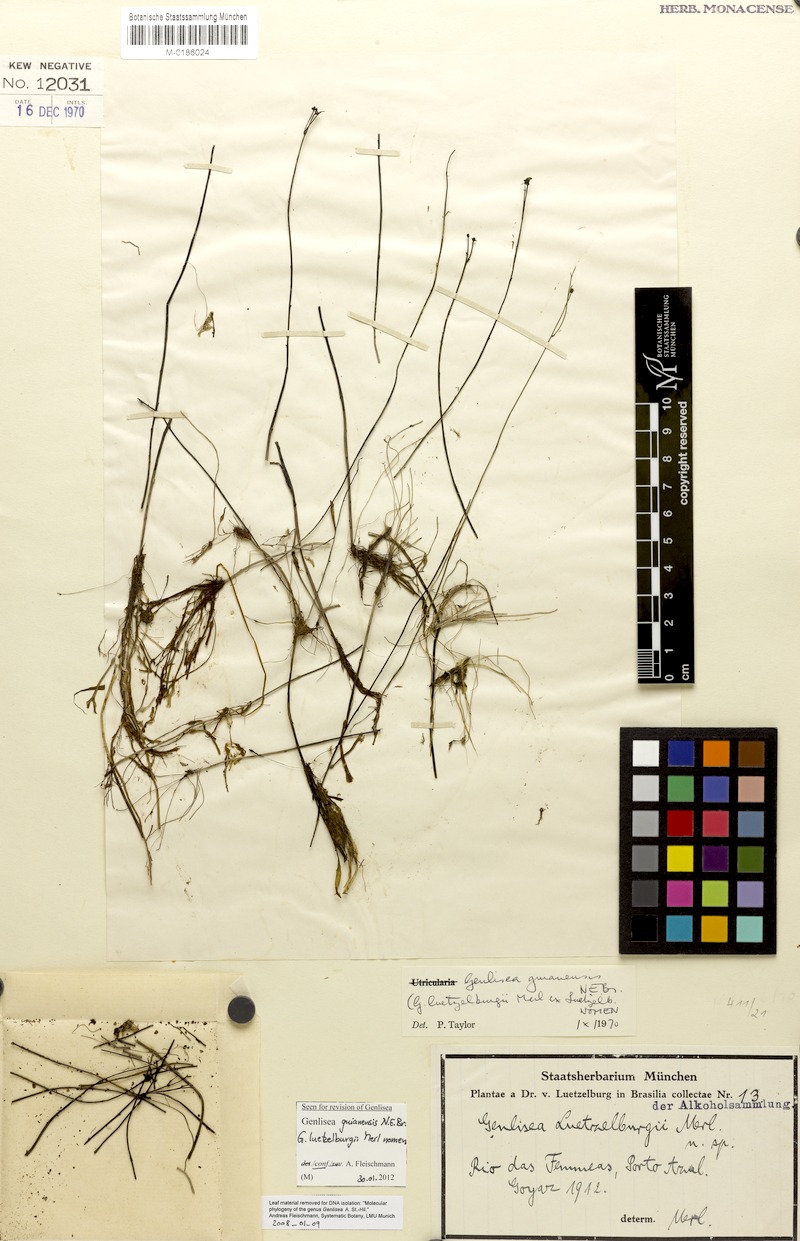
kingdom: Plantae
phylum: Tracheophyta
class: Magnoliopsida
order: Lamiales
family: Lentibulariaceae
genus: Genlisea
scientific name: Genlisea guianensis
